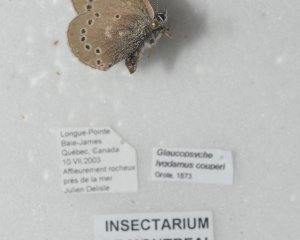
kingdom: Animalia
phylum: Arthropoda
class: Insecta
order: Lepidoptera
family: Lycaenidae
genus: Glaucopsyche
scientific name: Glaucopsyche lygdamus
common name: Silvery Blue
